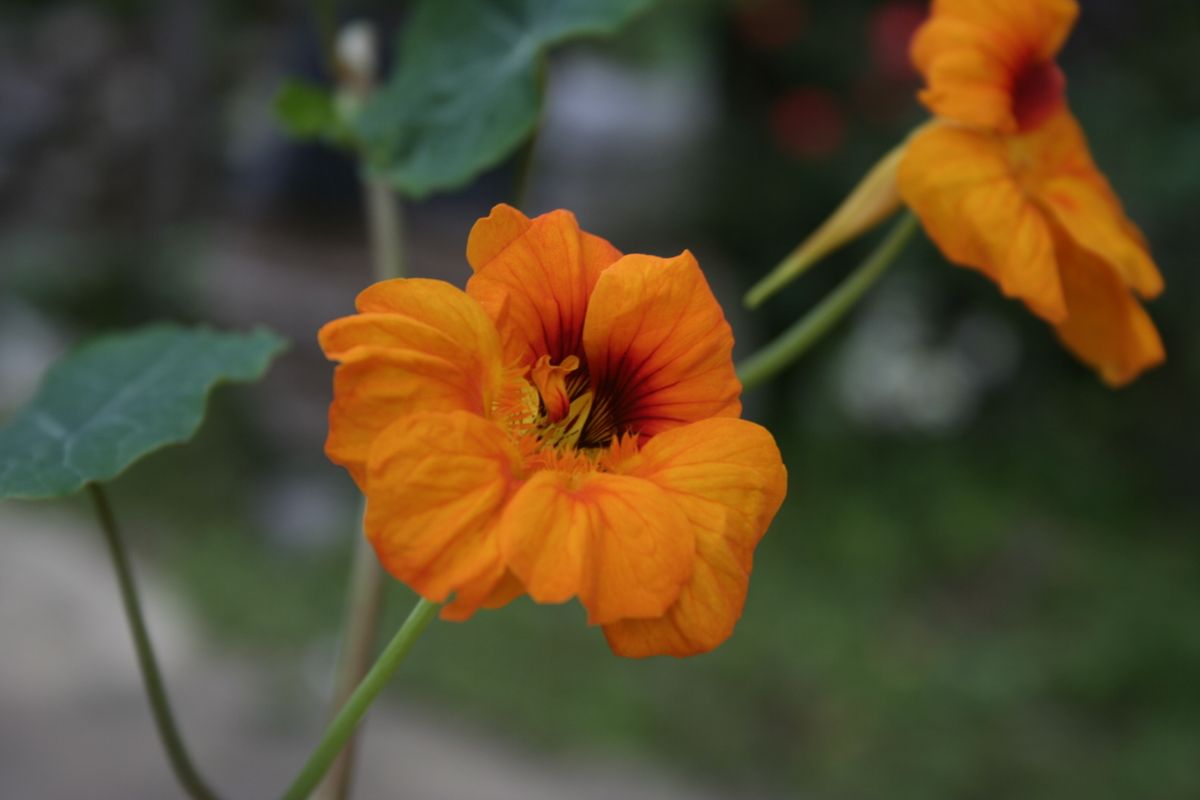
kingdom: Plantae
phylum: Tracheophyta
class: Magnoliopsida
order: Brassicales
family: Tropaeolaceae
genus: Tropaeolum
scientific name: Tropaeolum majus
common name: Nasturtium
